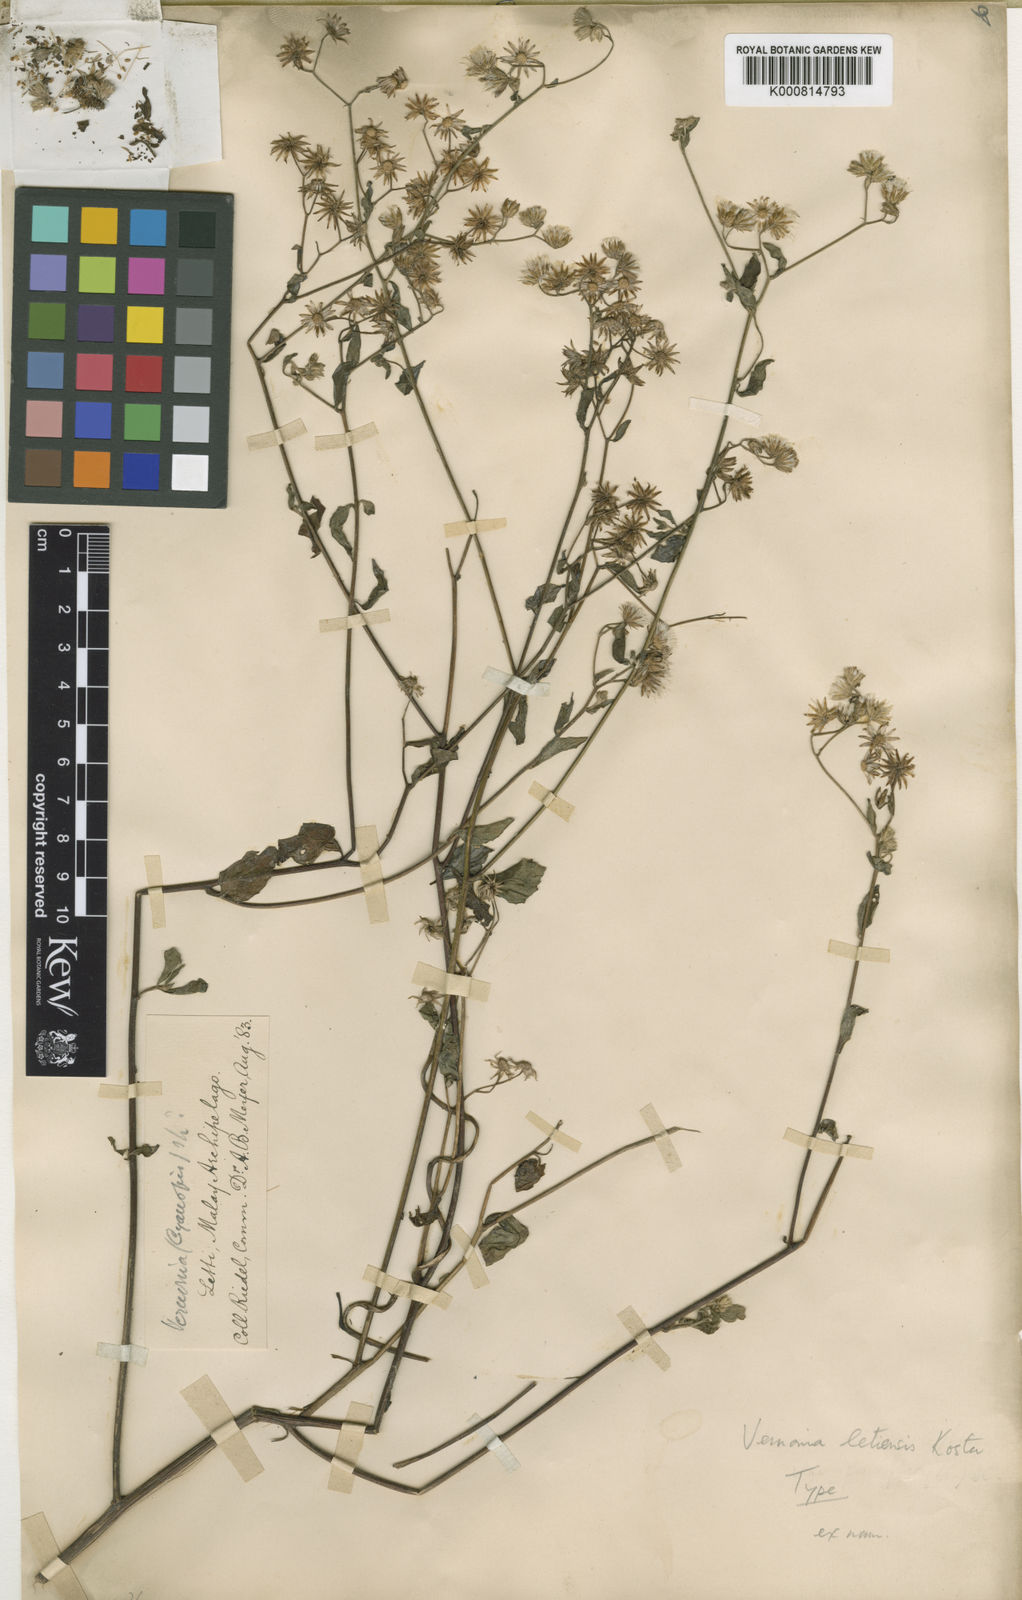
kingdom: Plantae
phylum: Tracheophyta
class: Magnoliopsida
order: Asterales
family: Asteraceae
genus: Vernonia
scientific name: Vernonia
